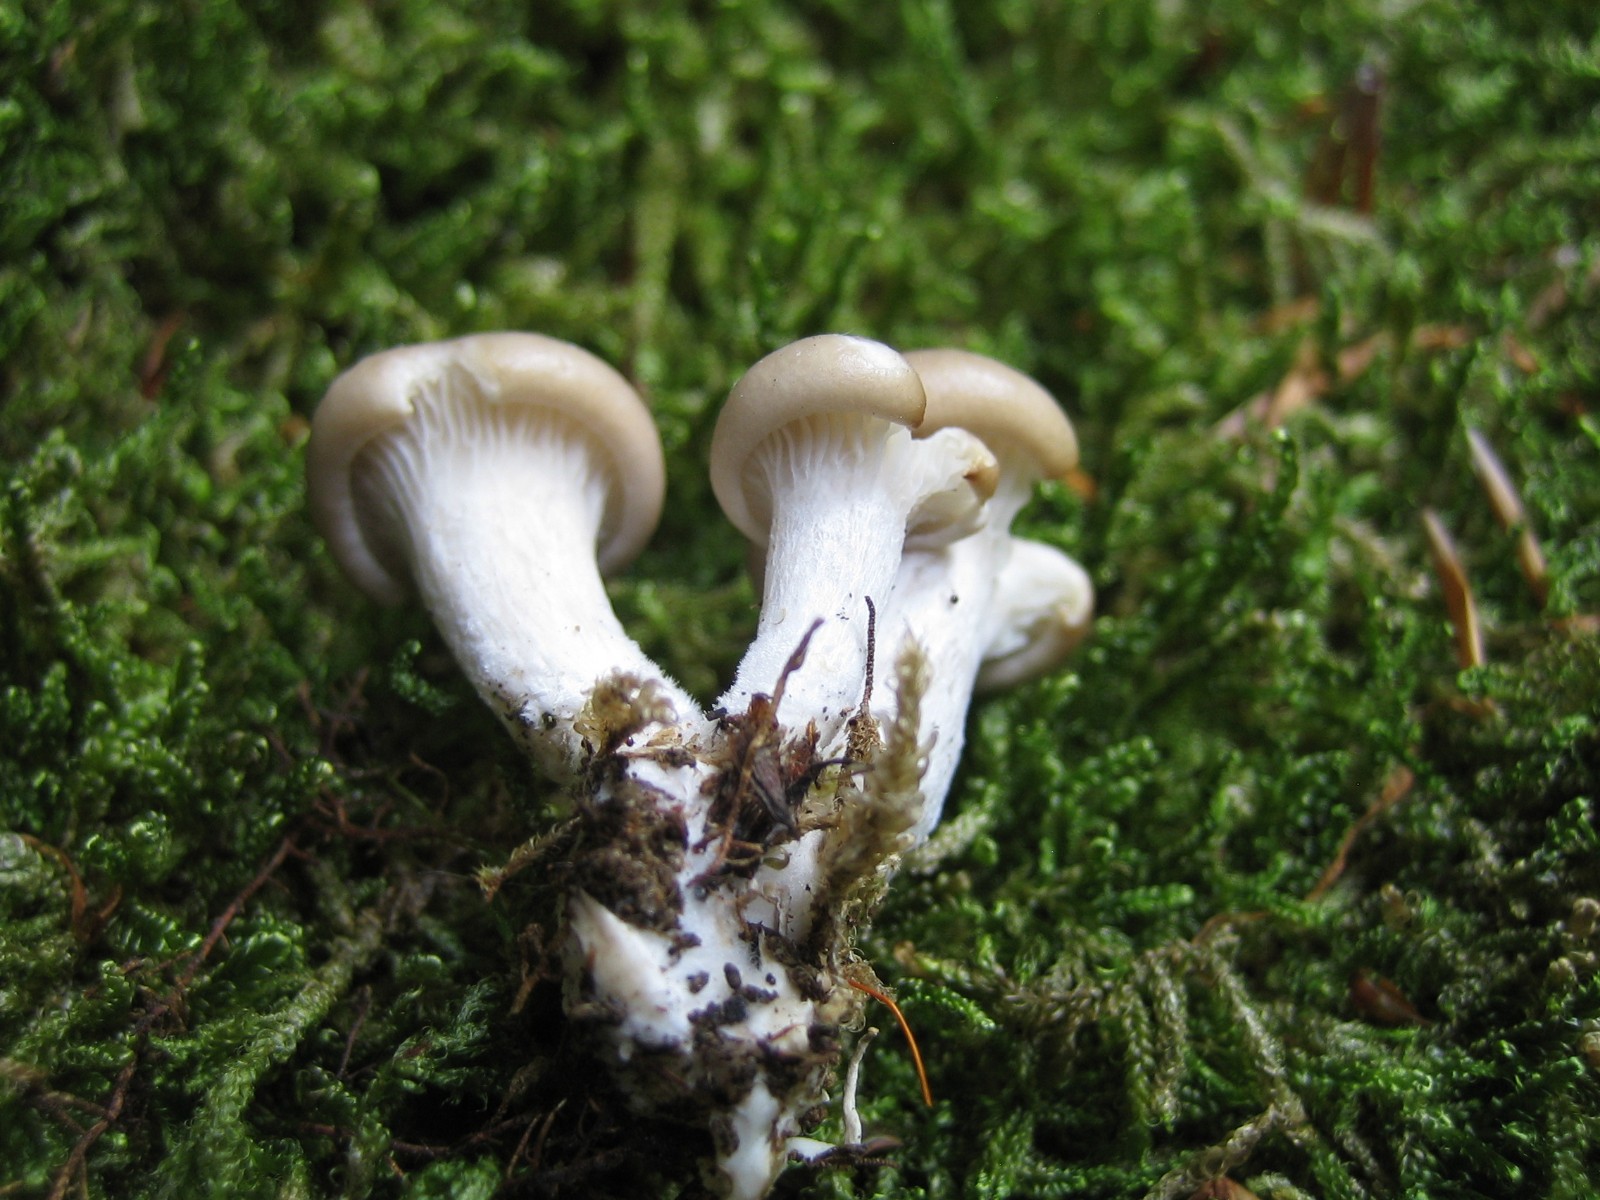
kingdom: Fungi
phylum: Basidiomycota
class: Agaricomycetes
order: Agaricales
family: Pleurotaceae
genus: Pleurotus
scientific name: Pleurotus pulmonarius
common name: sommer-østershat
